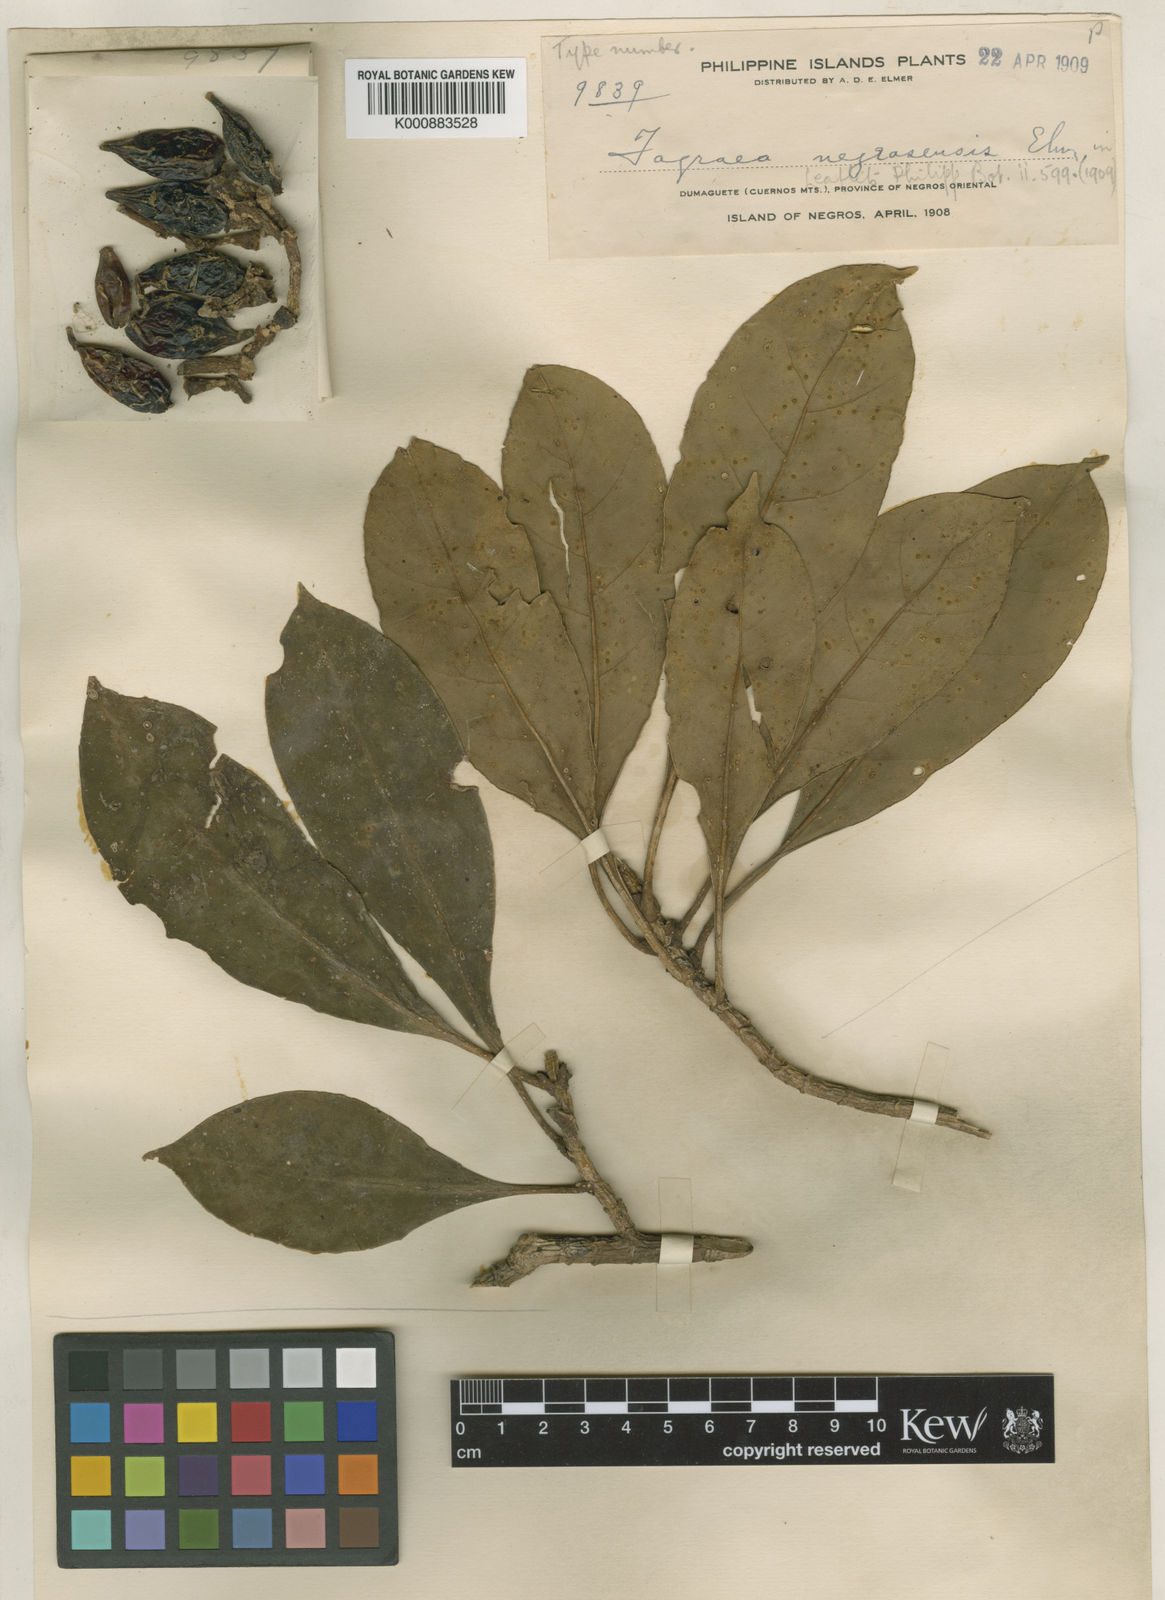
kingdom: Plantae
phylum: Tracheophyta
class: Magnoliopsida
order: Gentianales
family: Gentianaceae
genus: Fagraea
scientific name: Fagraea plumeriiflora
